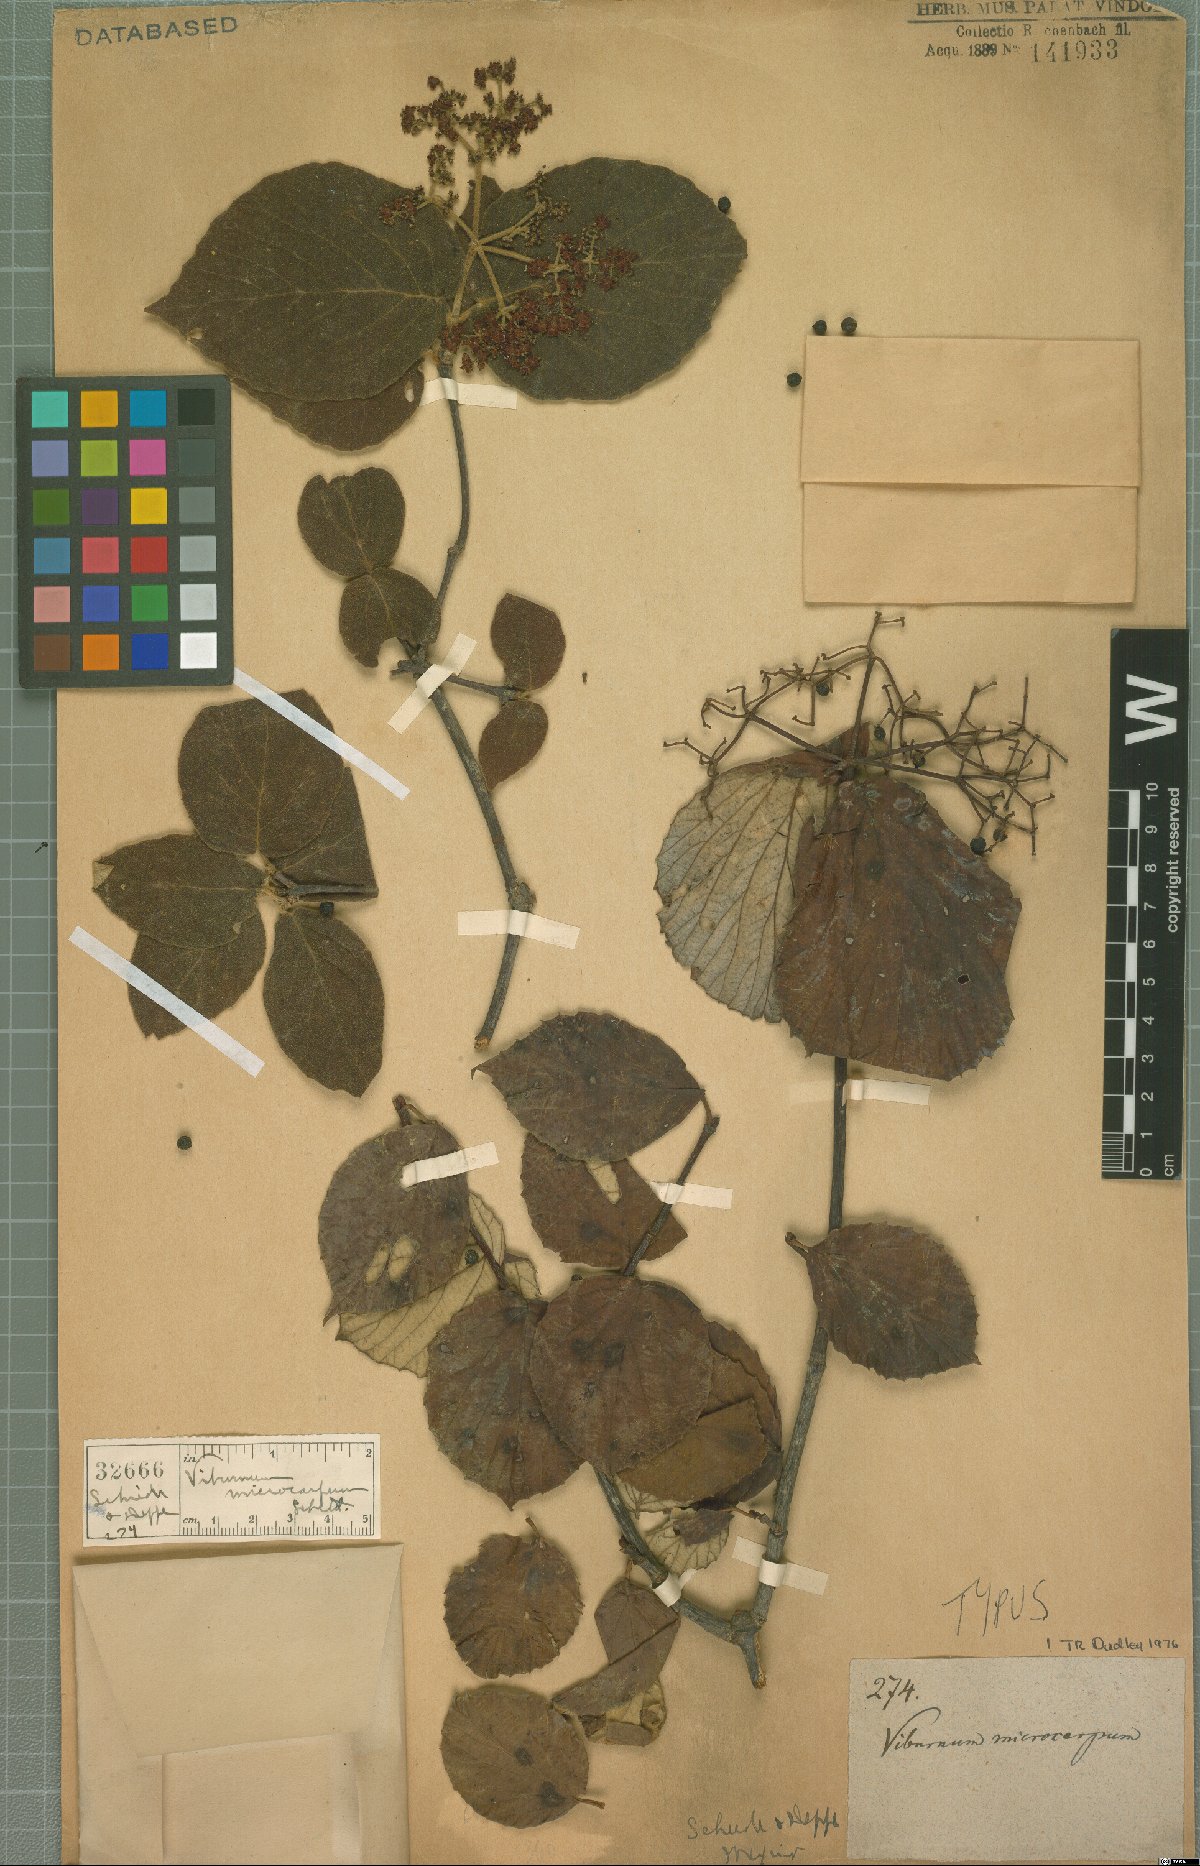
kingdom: Plantae
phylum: Tracheophyta
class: Magnoliopsida
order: Dipsacales
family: Viburnaceae
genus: Viburnum
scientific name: Viburnum microcarpum
